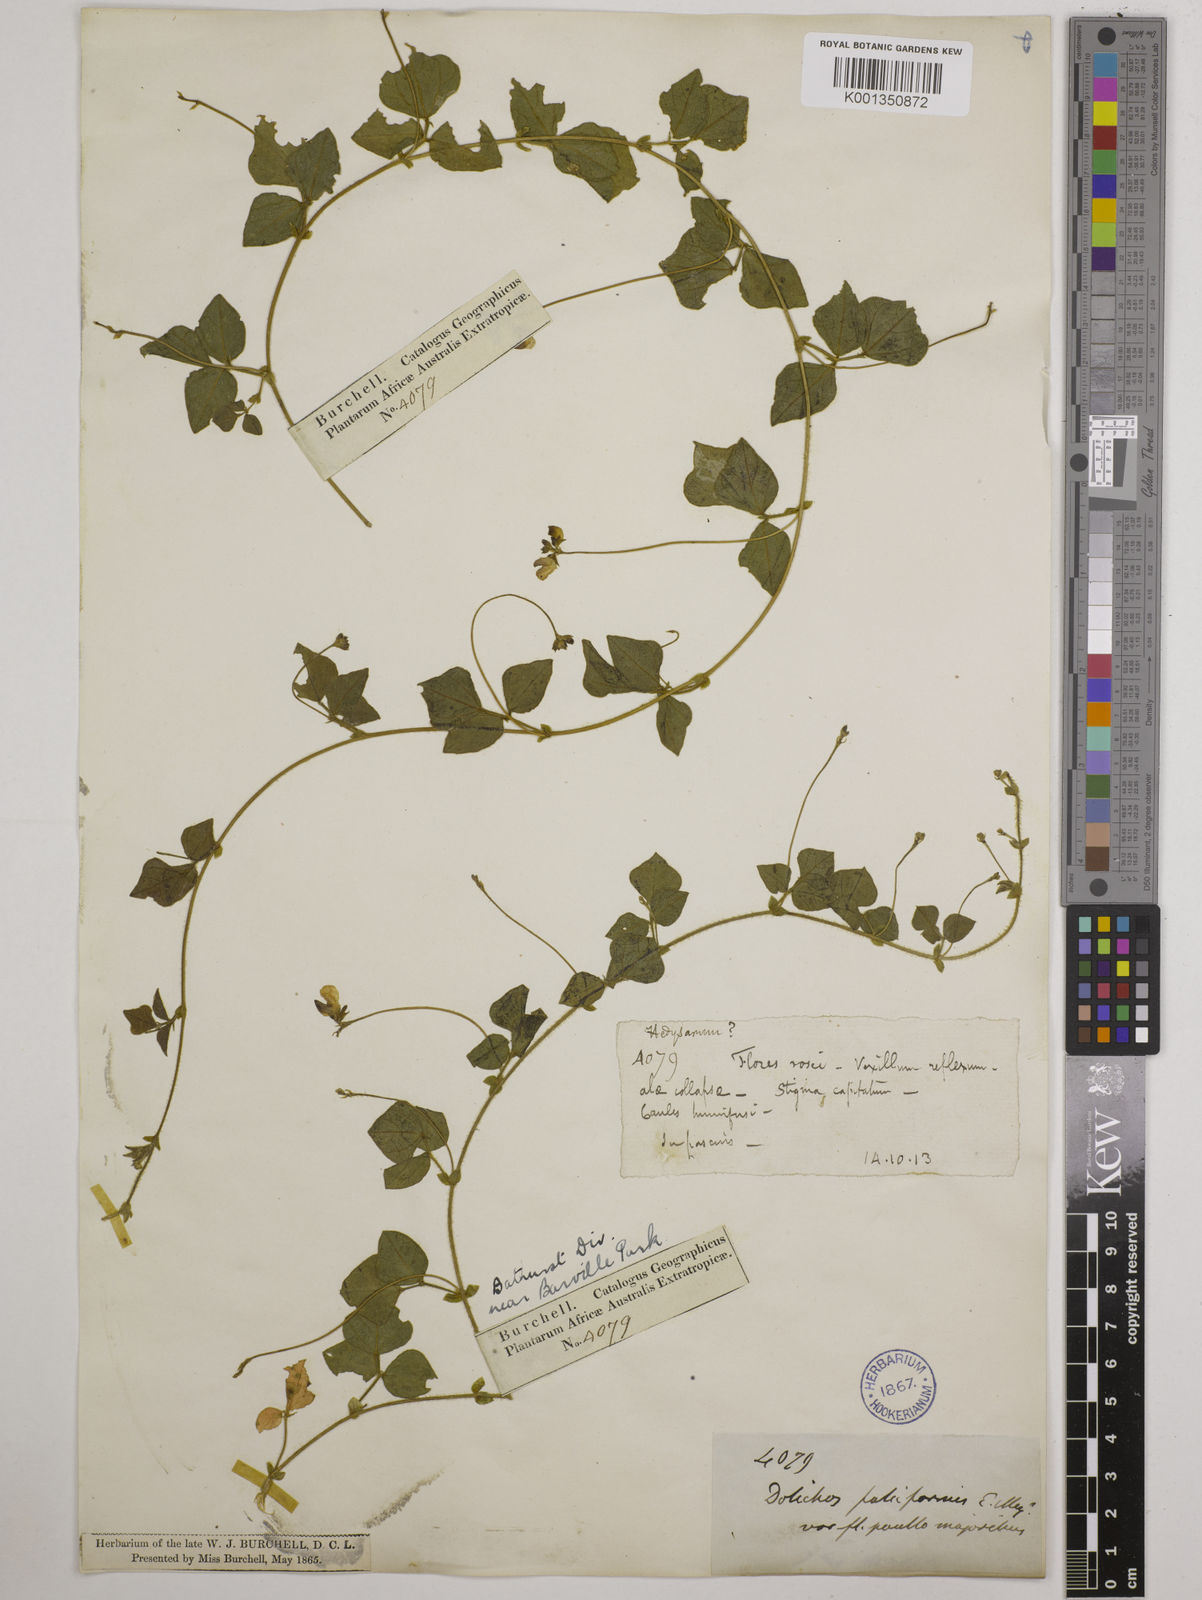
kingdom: Plantae
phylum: Tracheophyta
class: Magnoliopsida
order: Fabales
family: Fabaceae
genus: Dolichos
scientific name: Dolichos falciformis
